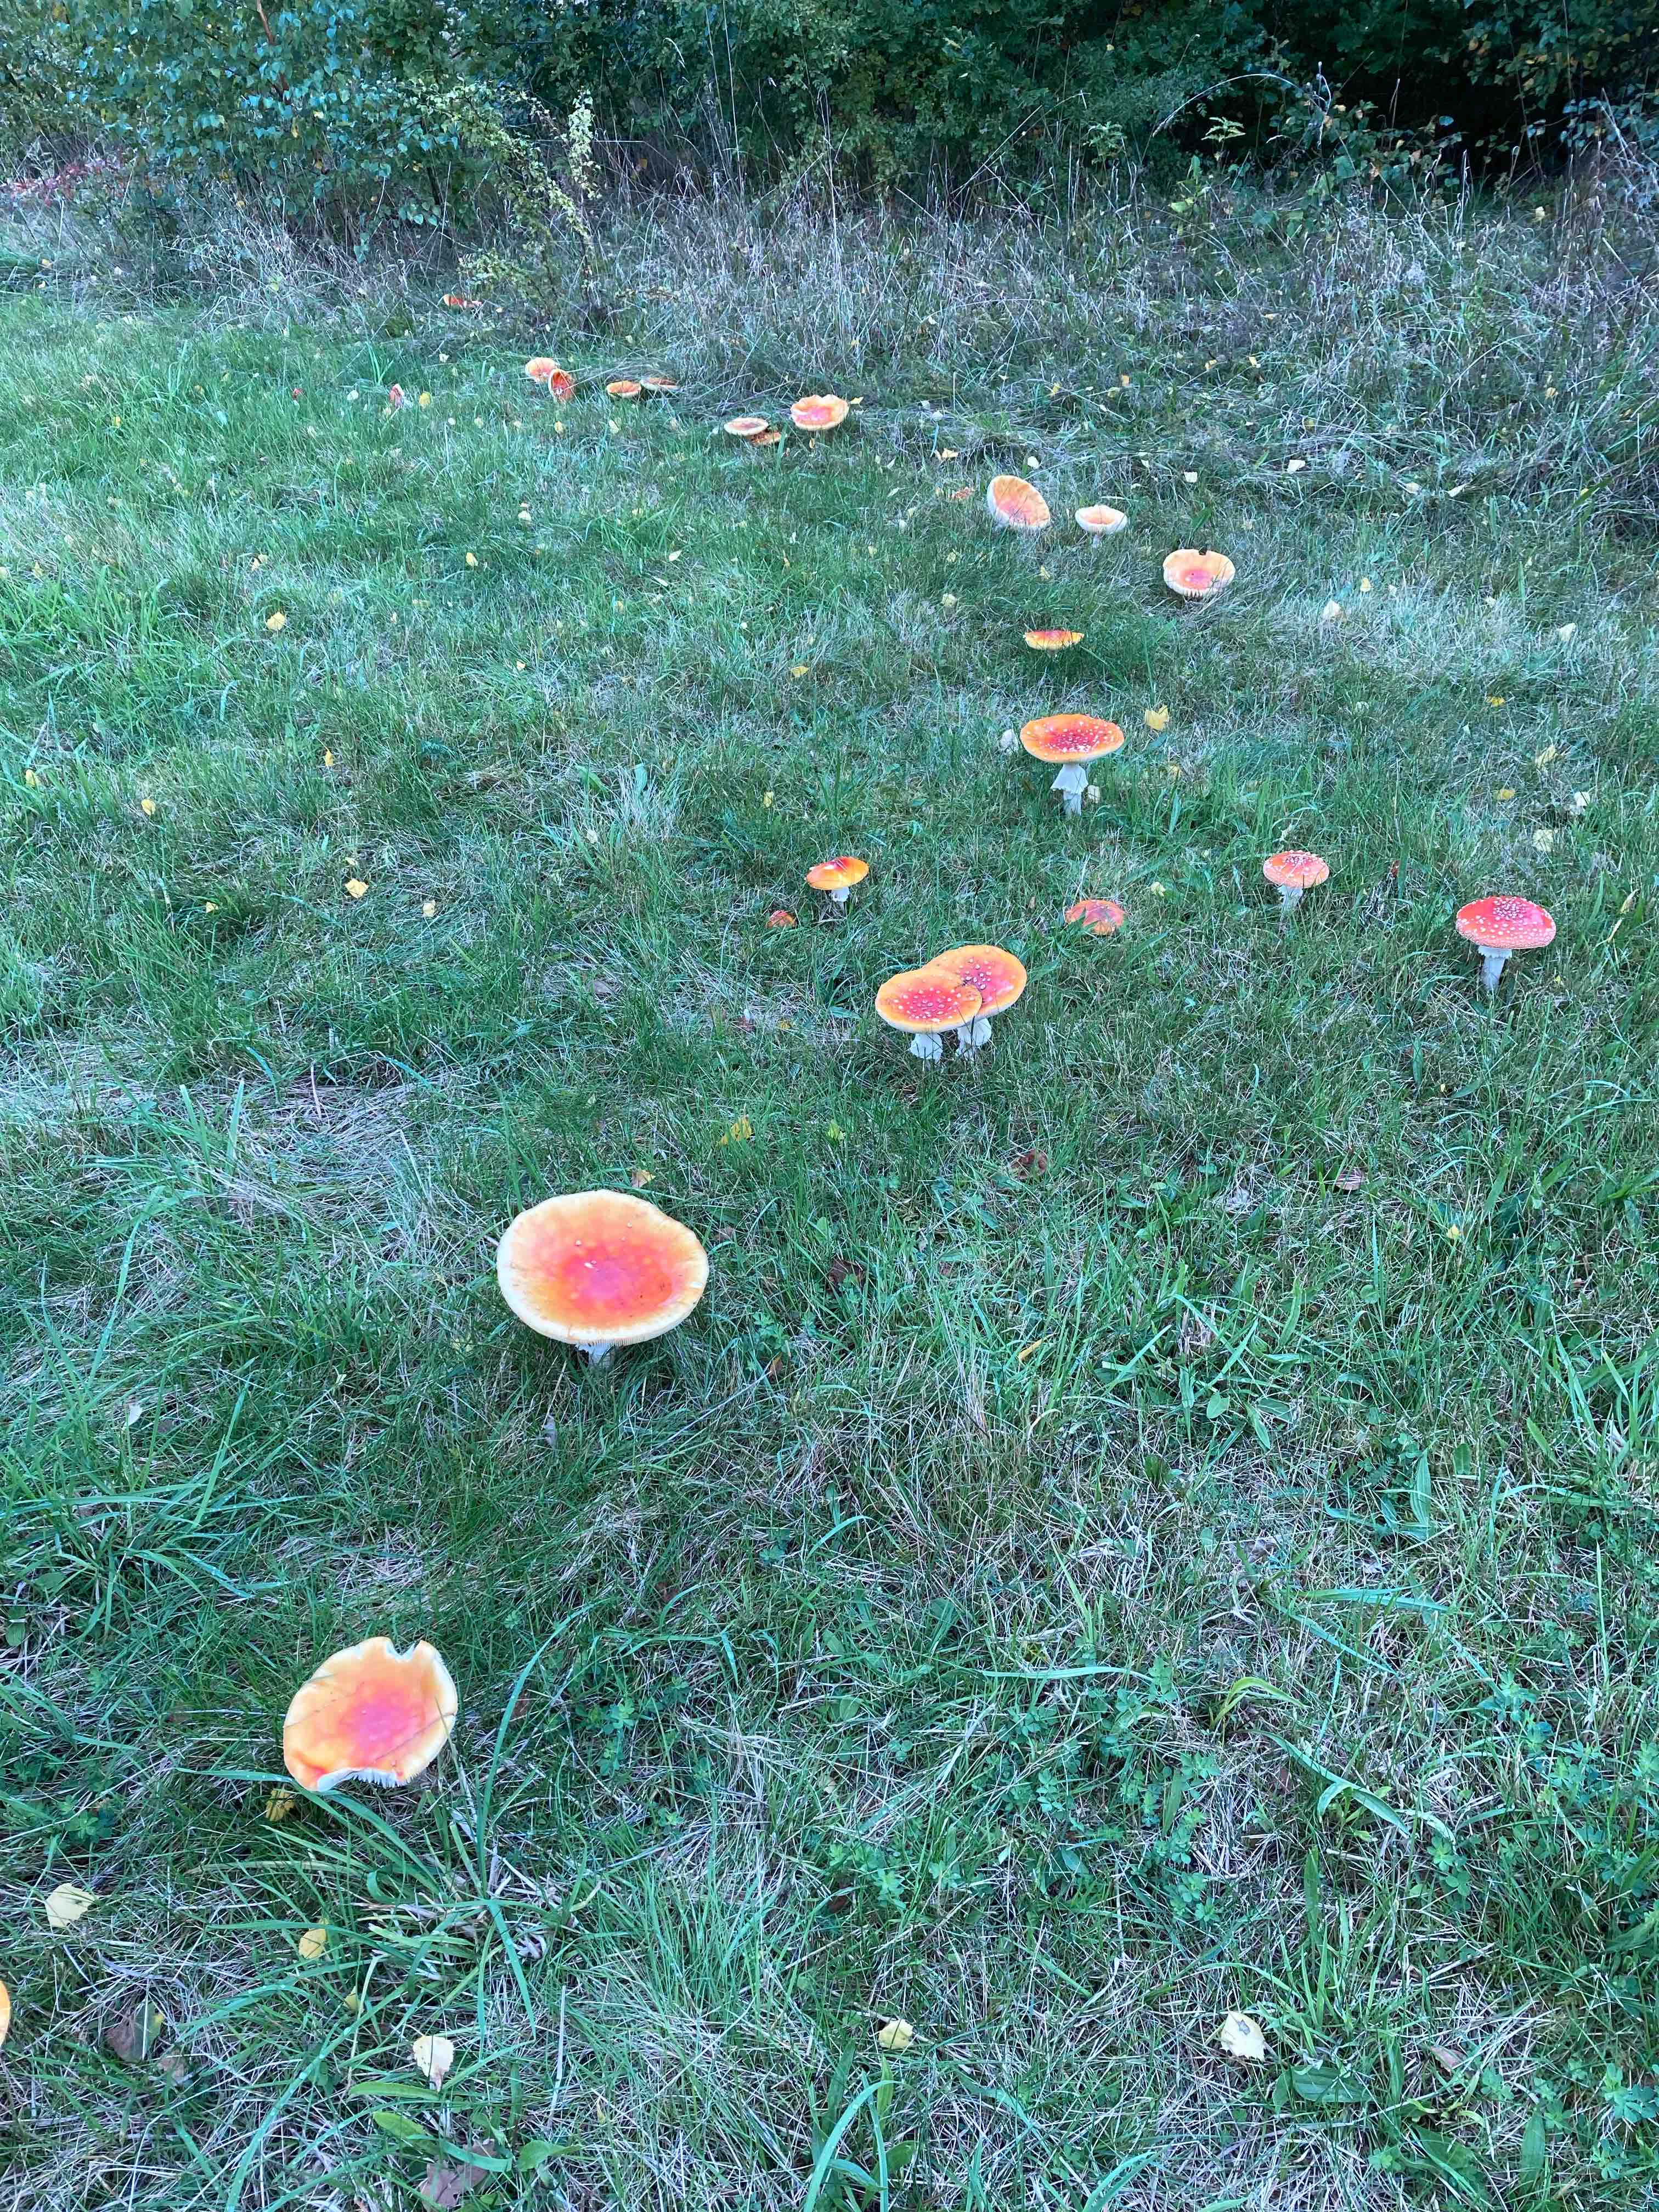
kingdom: Fungi
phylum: Basidiomycota
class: Agaricomycetes
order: Agaricales
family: Amanitaceae
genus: Amanita
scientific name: Amanita muscaria
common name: rød fluesvamp
